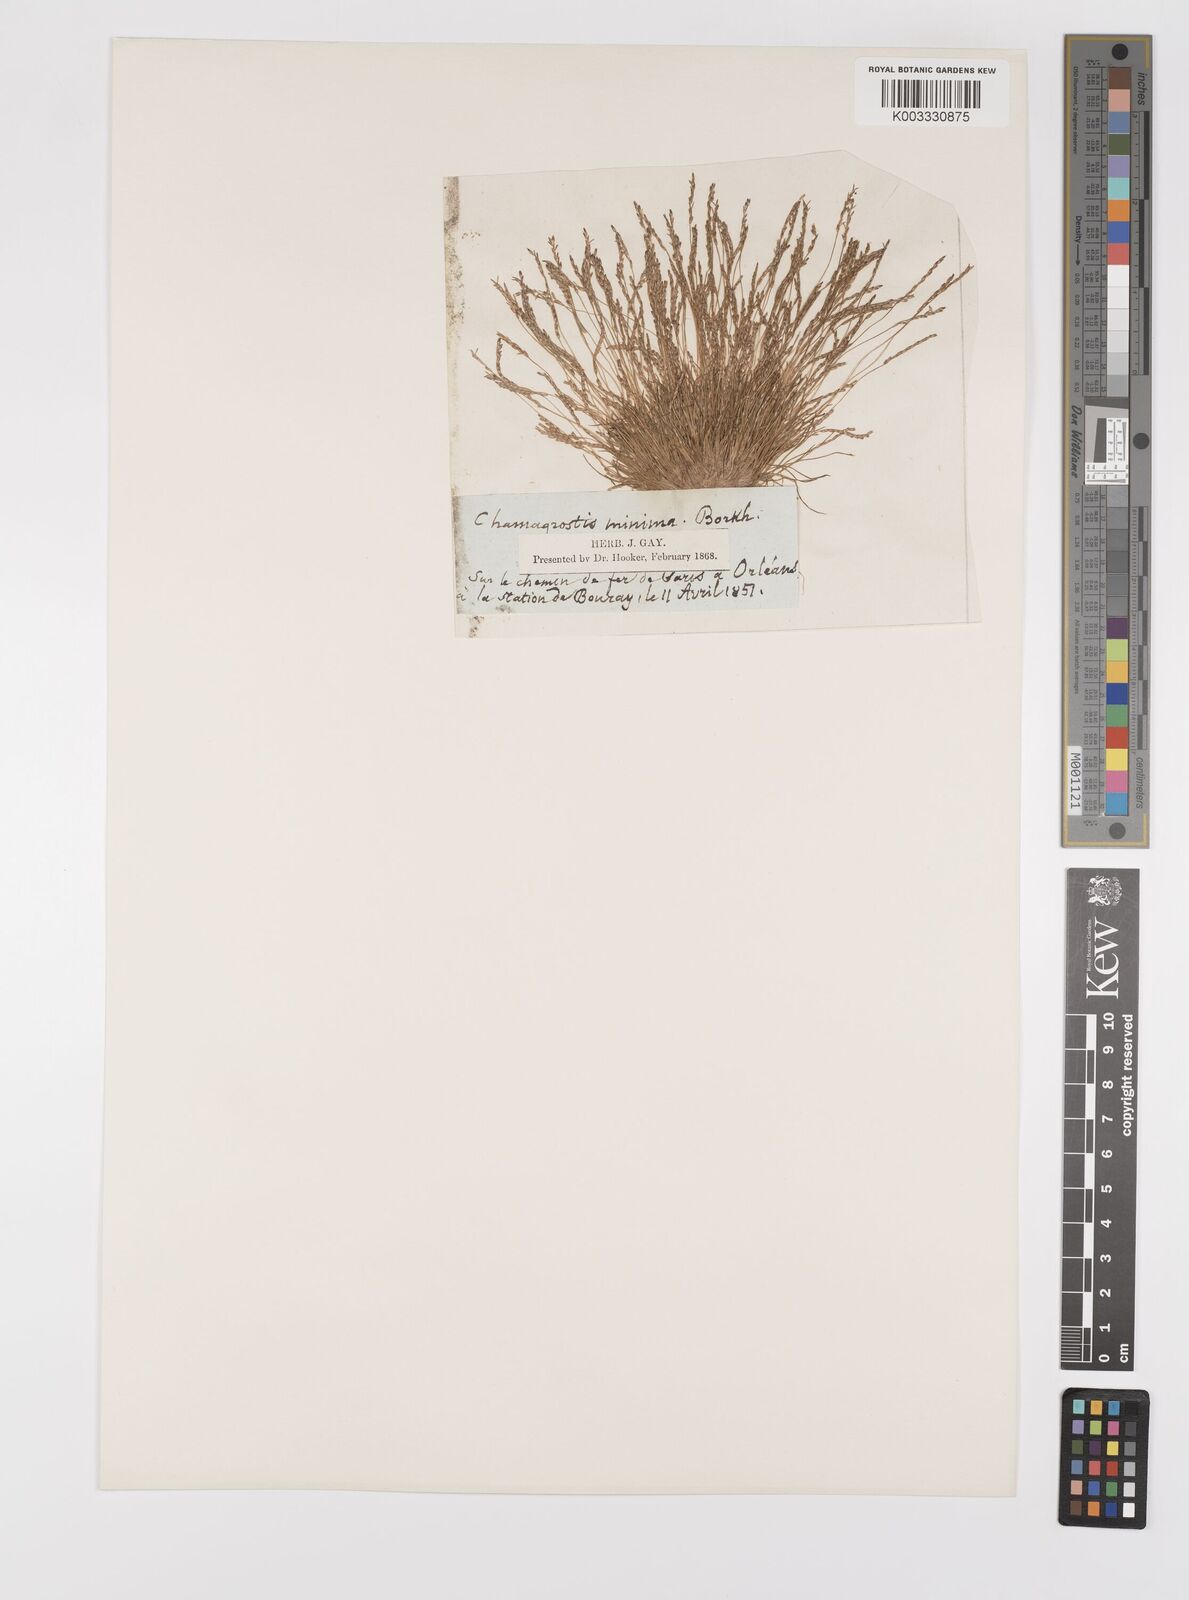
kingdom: Plantae
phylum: Tracheophyta
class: Liliopsida
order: Poales
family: Poaceae
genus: Mibora
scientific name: Mibora minima
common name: Early sand-grass
